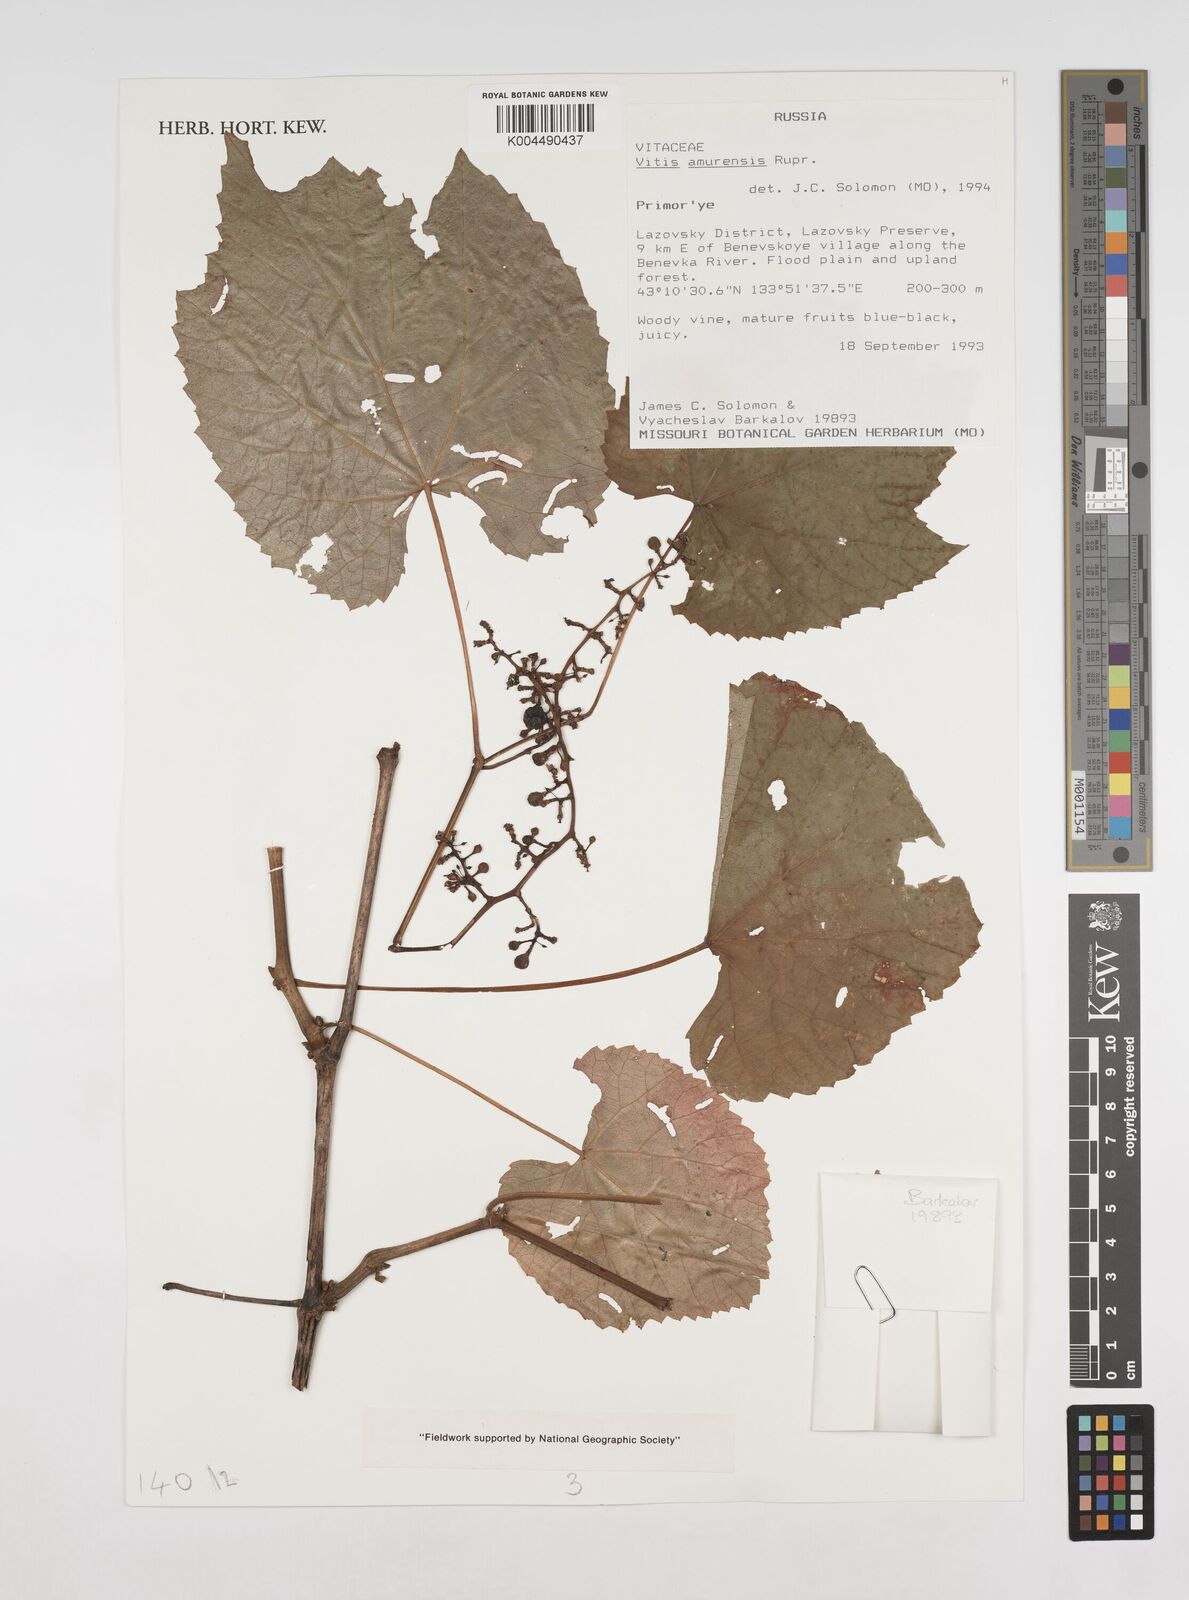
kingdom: Plantae
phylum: Tracheophyta
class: Magnoliopsida
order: Vitales
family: Vitaceae
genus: Vitis
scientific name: Vitis vinifera
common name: Grape-vine
